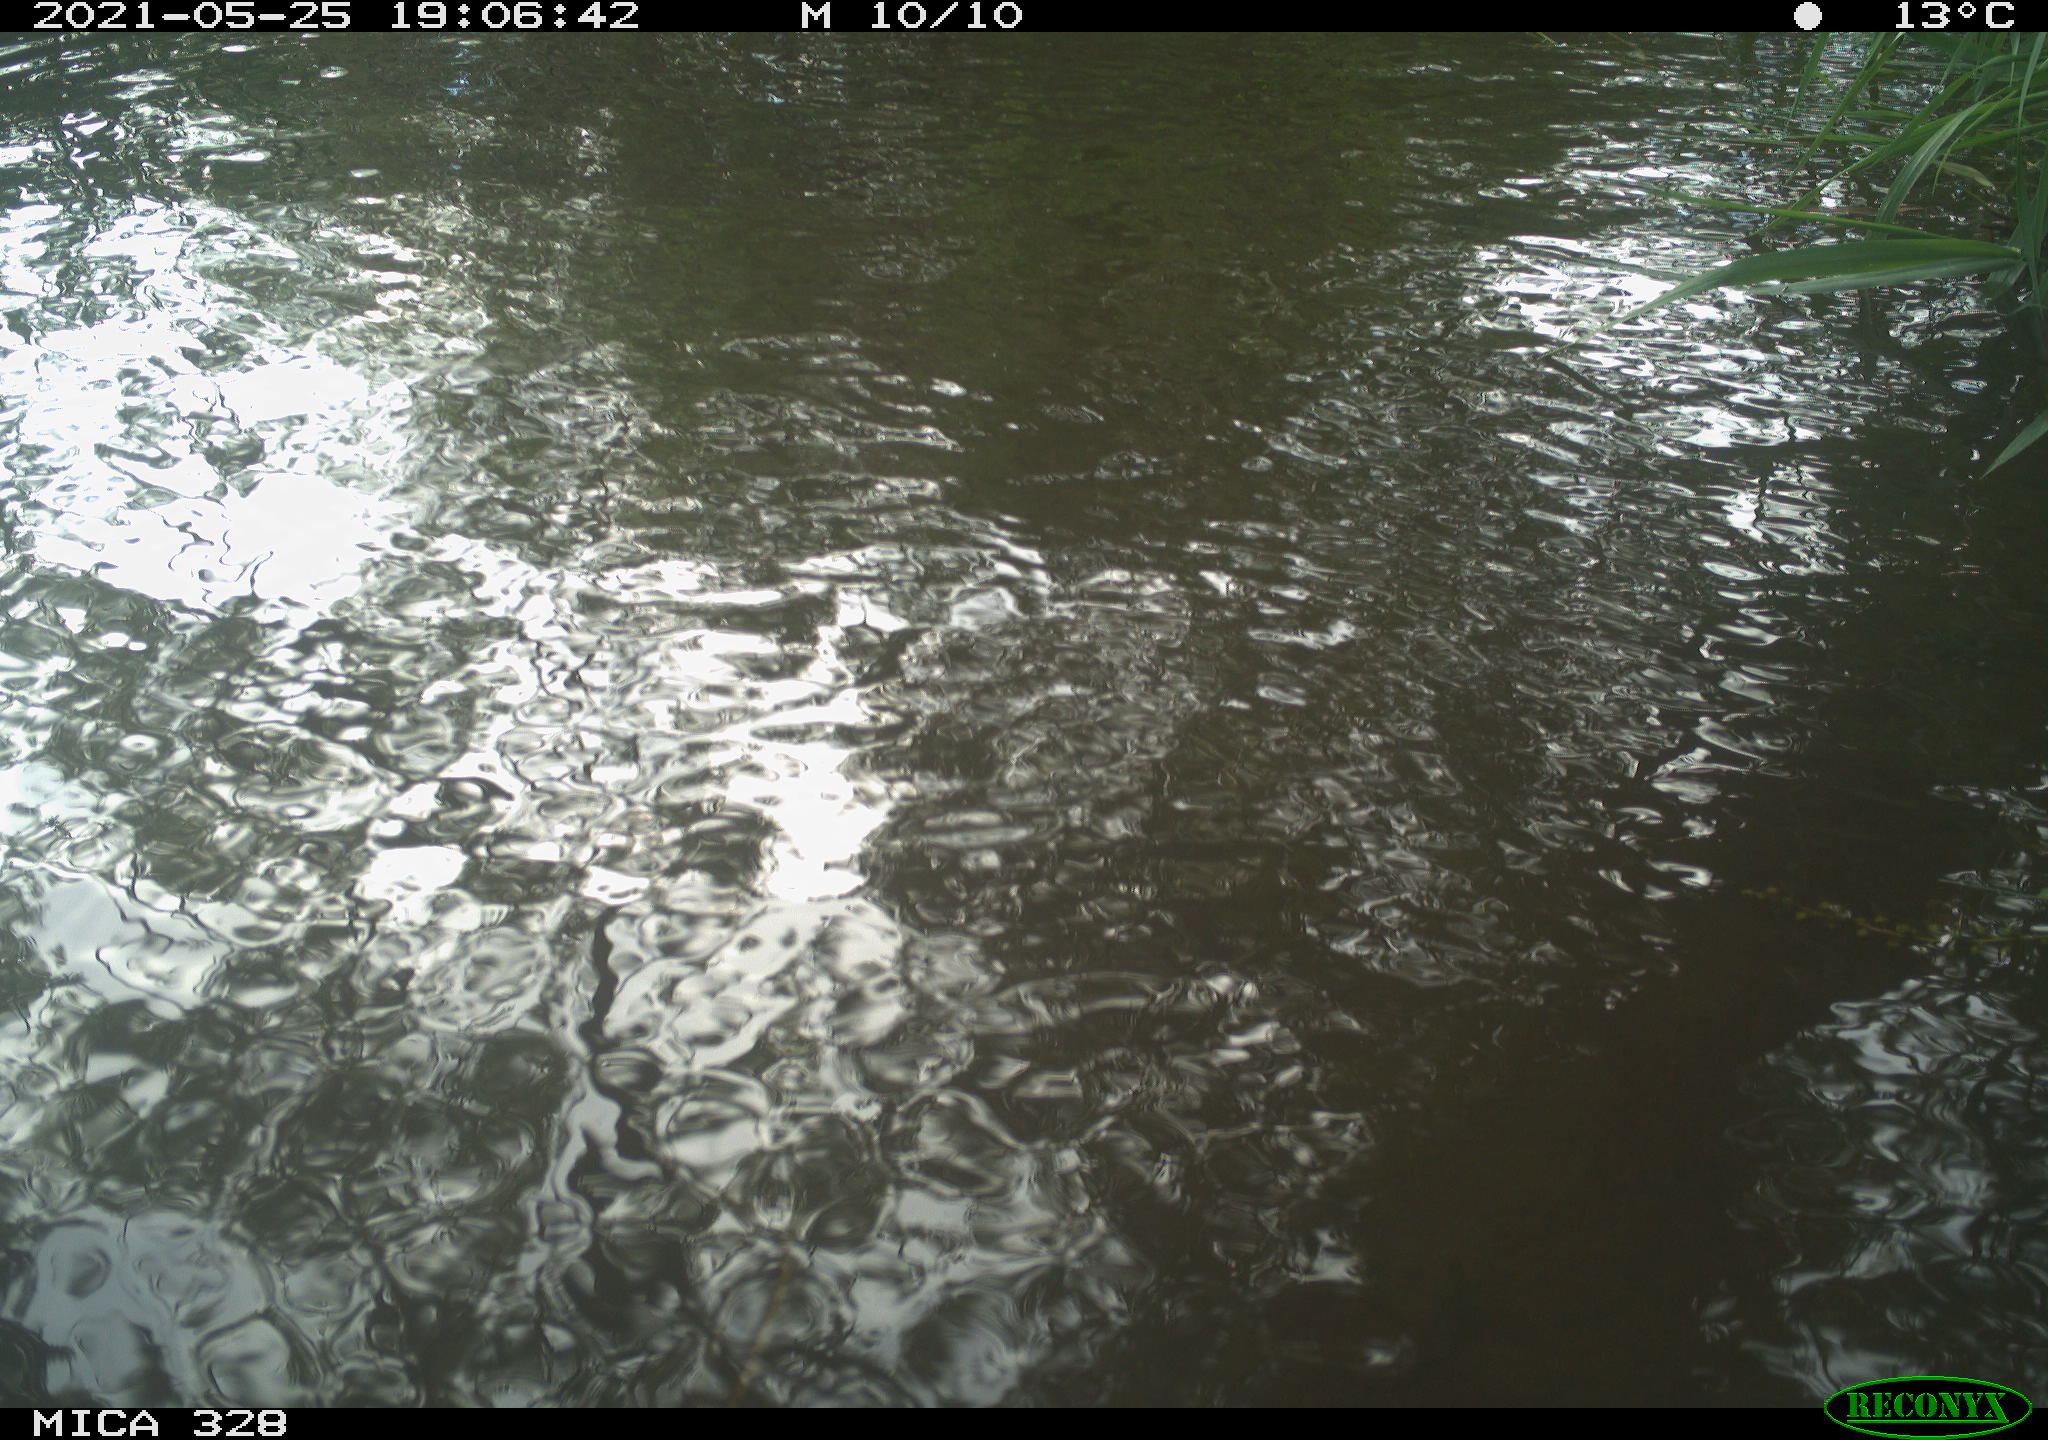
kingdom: Animalia
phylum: Chordata
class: Mammalia
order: Rodentia
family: Cricetidae
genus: Ondatra
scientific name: Ondatra zibethicus
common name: Muskrat
